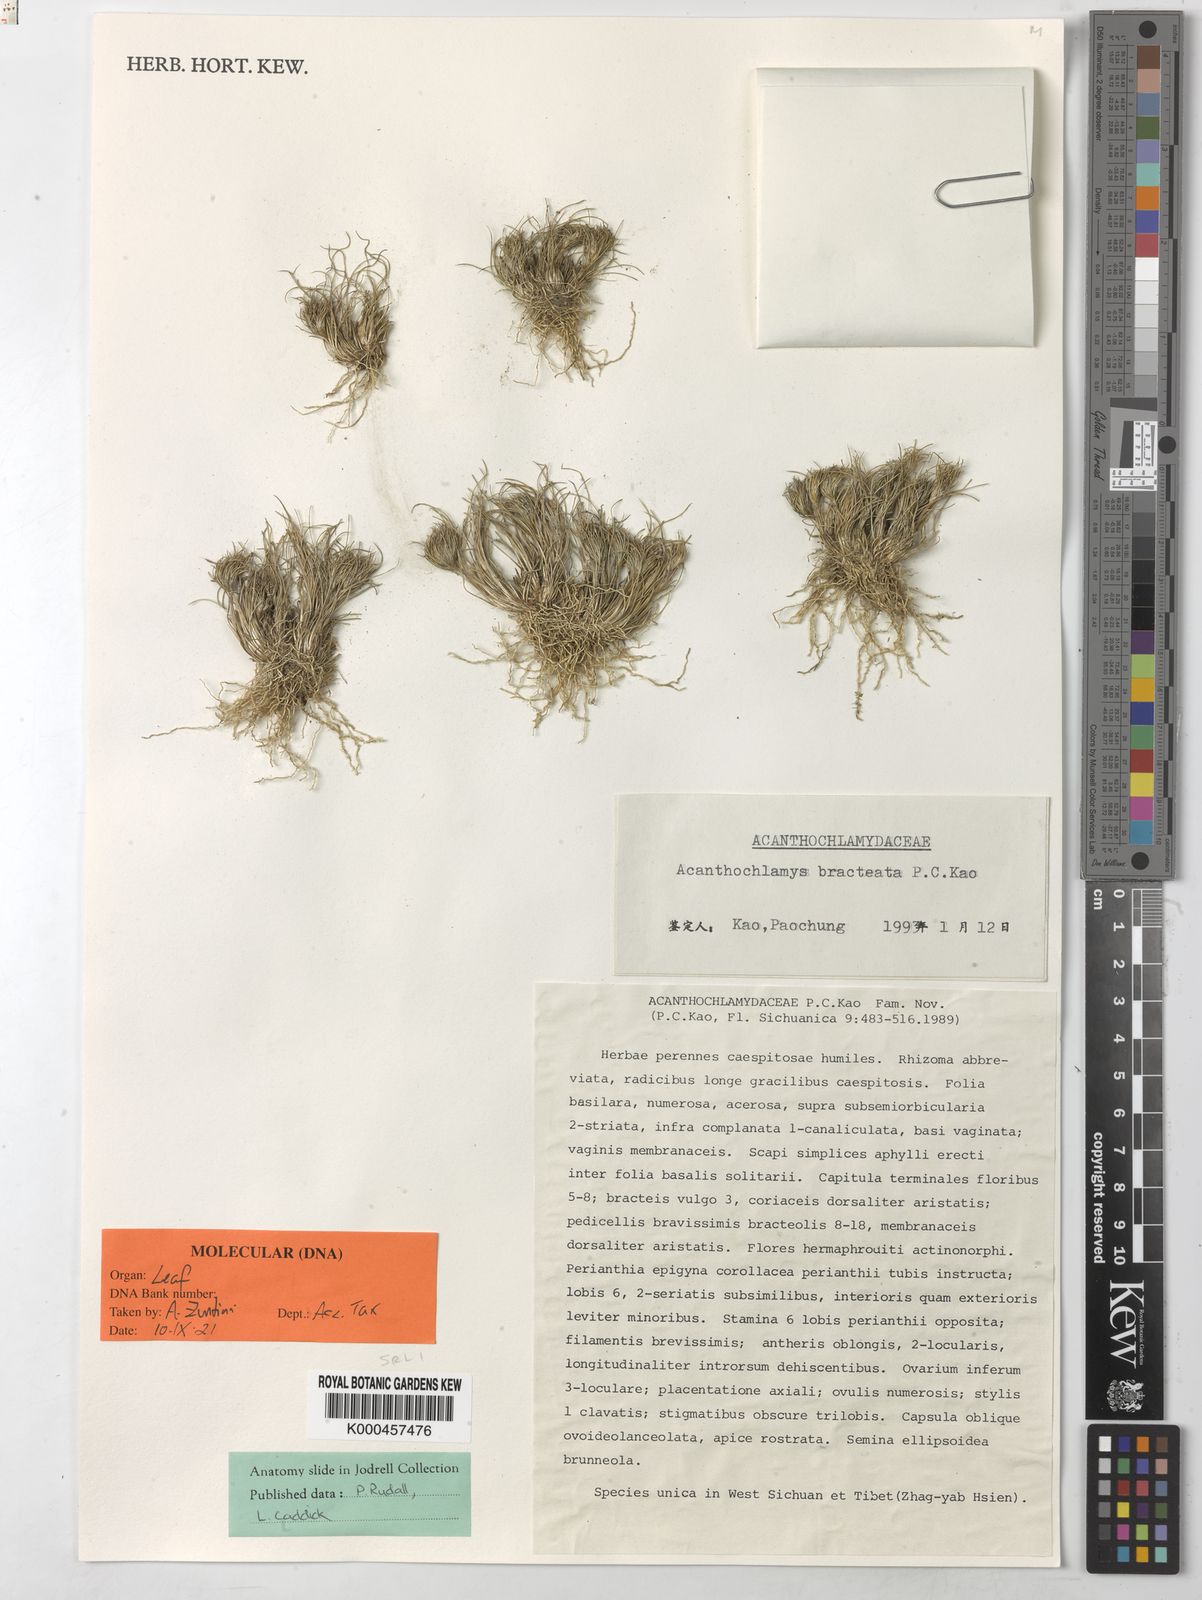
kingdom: Plantae
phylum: Tracheophyta
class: Liliopsida
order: Pandanales
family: Velloziaceae
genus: Acanthochlamys
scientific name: Acanthochlamys bracteata
